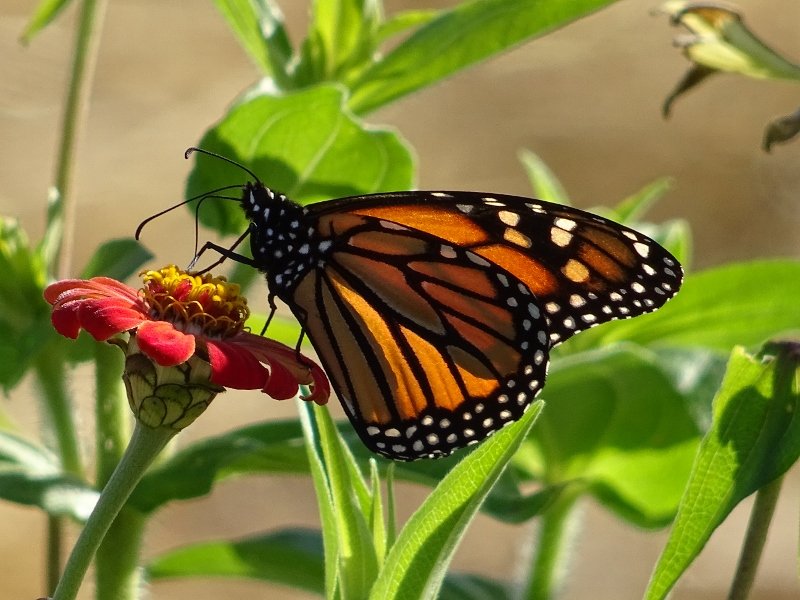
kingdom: Animalia
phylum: Arthropoda
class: Insecta
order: Lepidoptera
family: Nymphalidae
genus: Danaus
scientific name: Danaus plexippus
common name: Monarch
